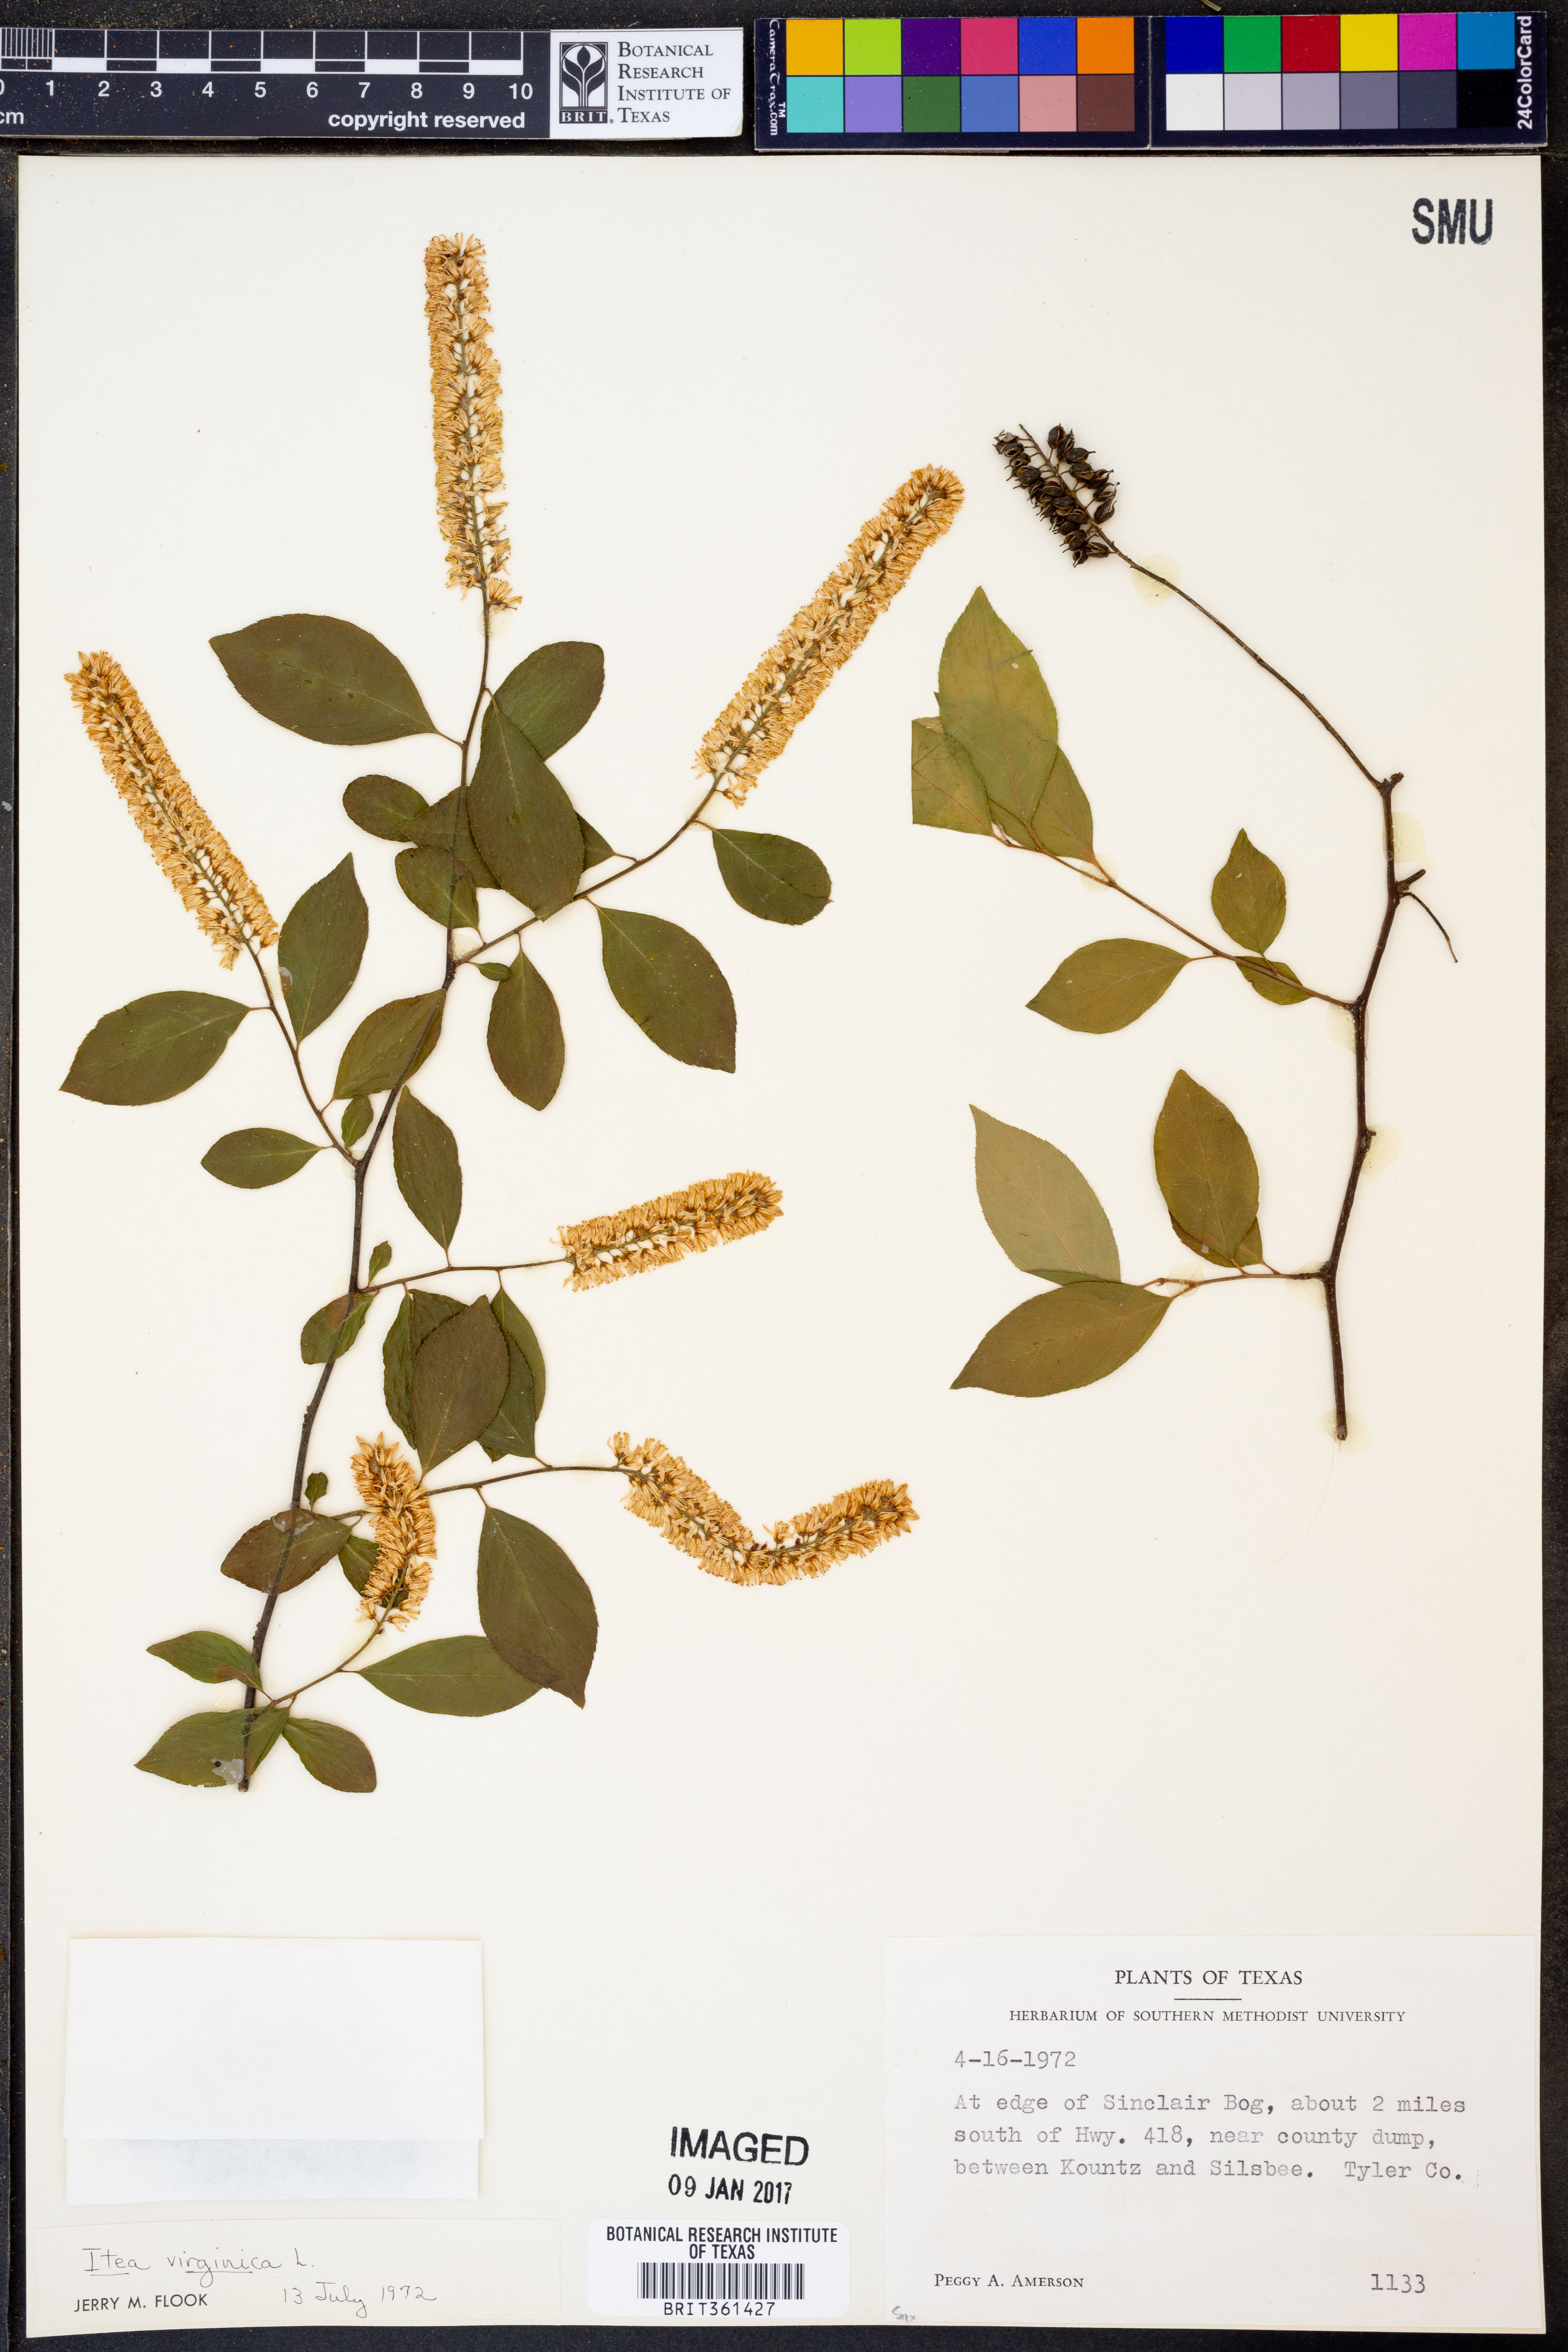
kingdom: Plantae
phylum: Tracheophyta
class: Magnoliopsida
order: Saxifragales
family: Iteaceae
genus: Itea
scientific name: Itea virginica
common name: Sweetspire
